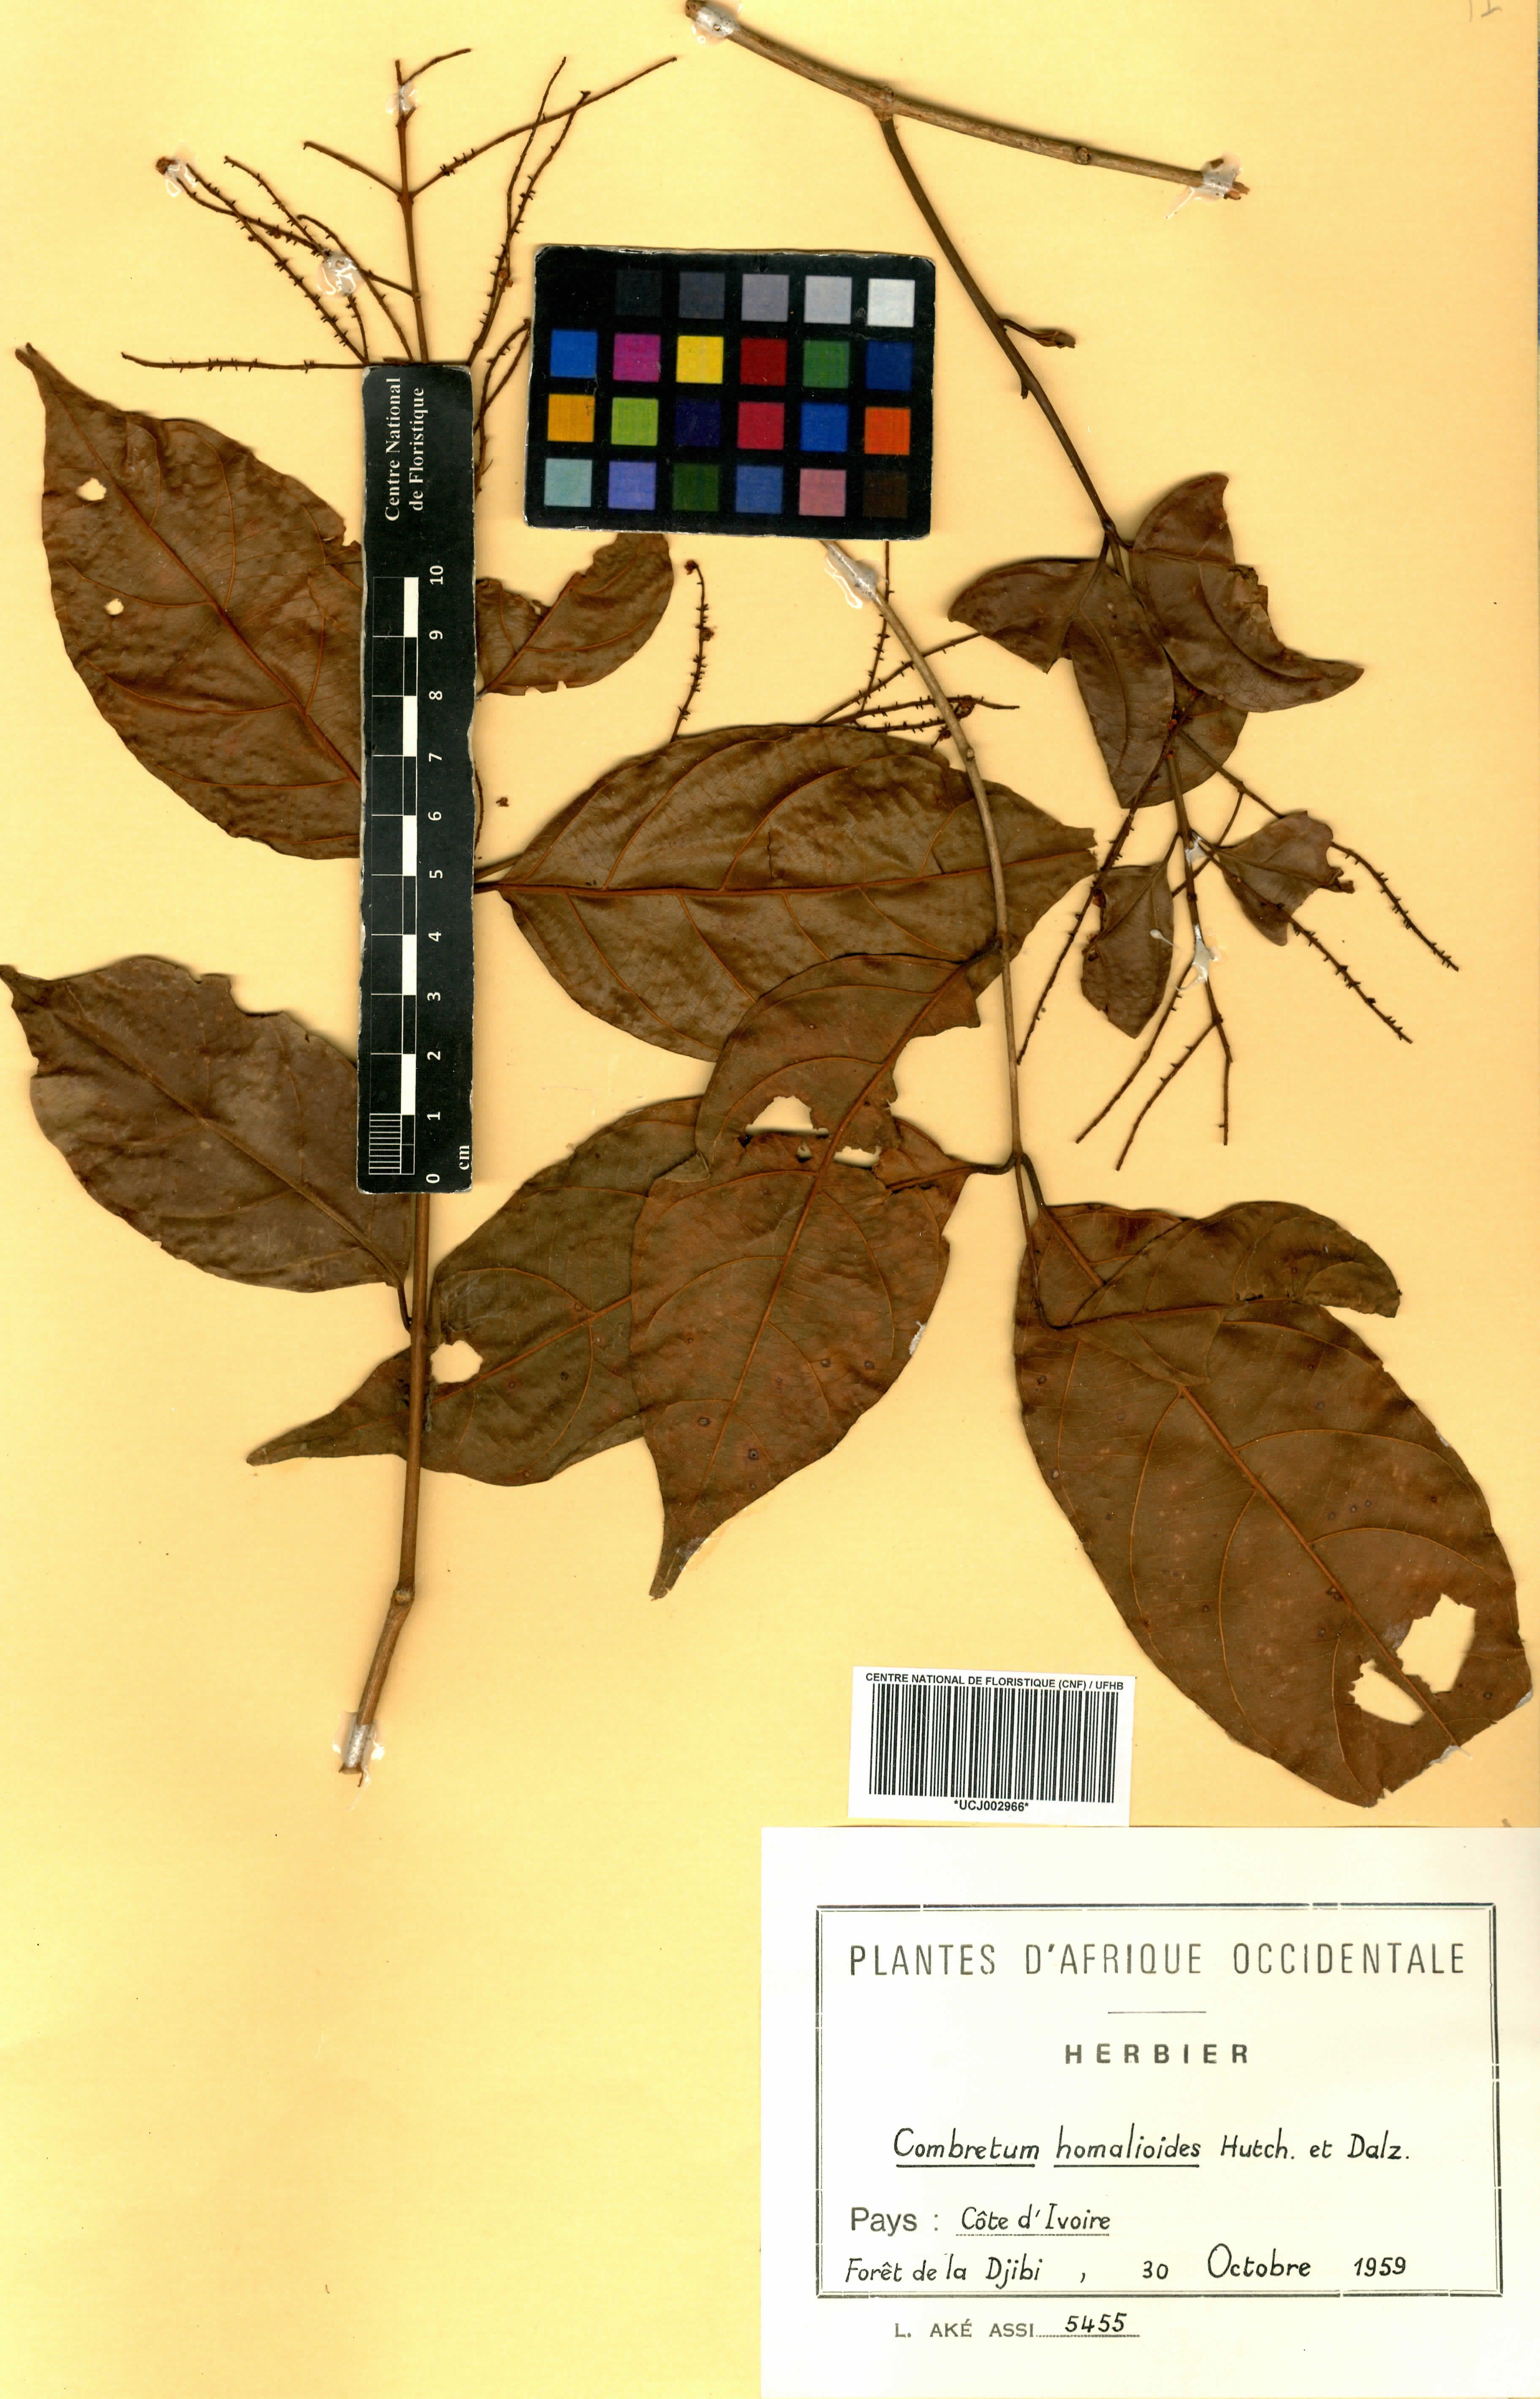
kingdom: Plantae
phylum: Tracheophyta
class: Magnoliopsida
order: Myrtales
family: Combretaceae
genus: Combretum
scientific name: Combretum homalioides
